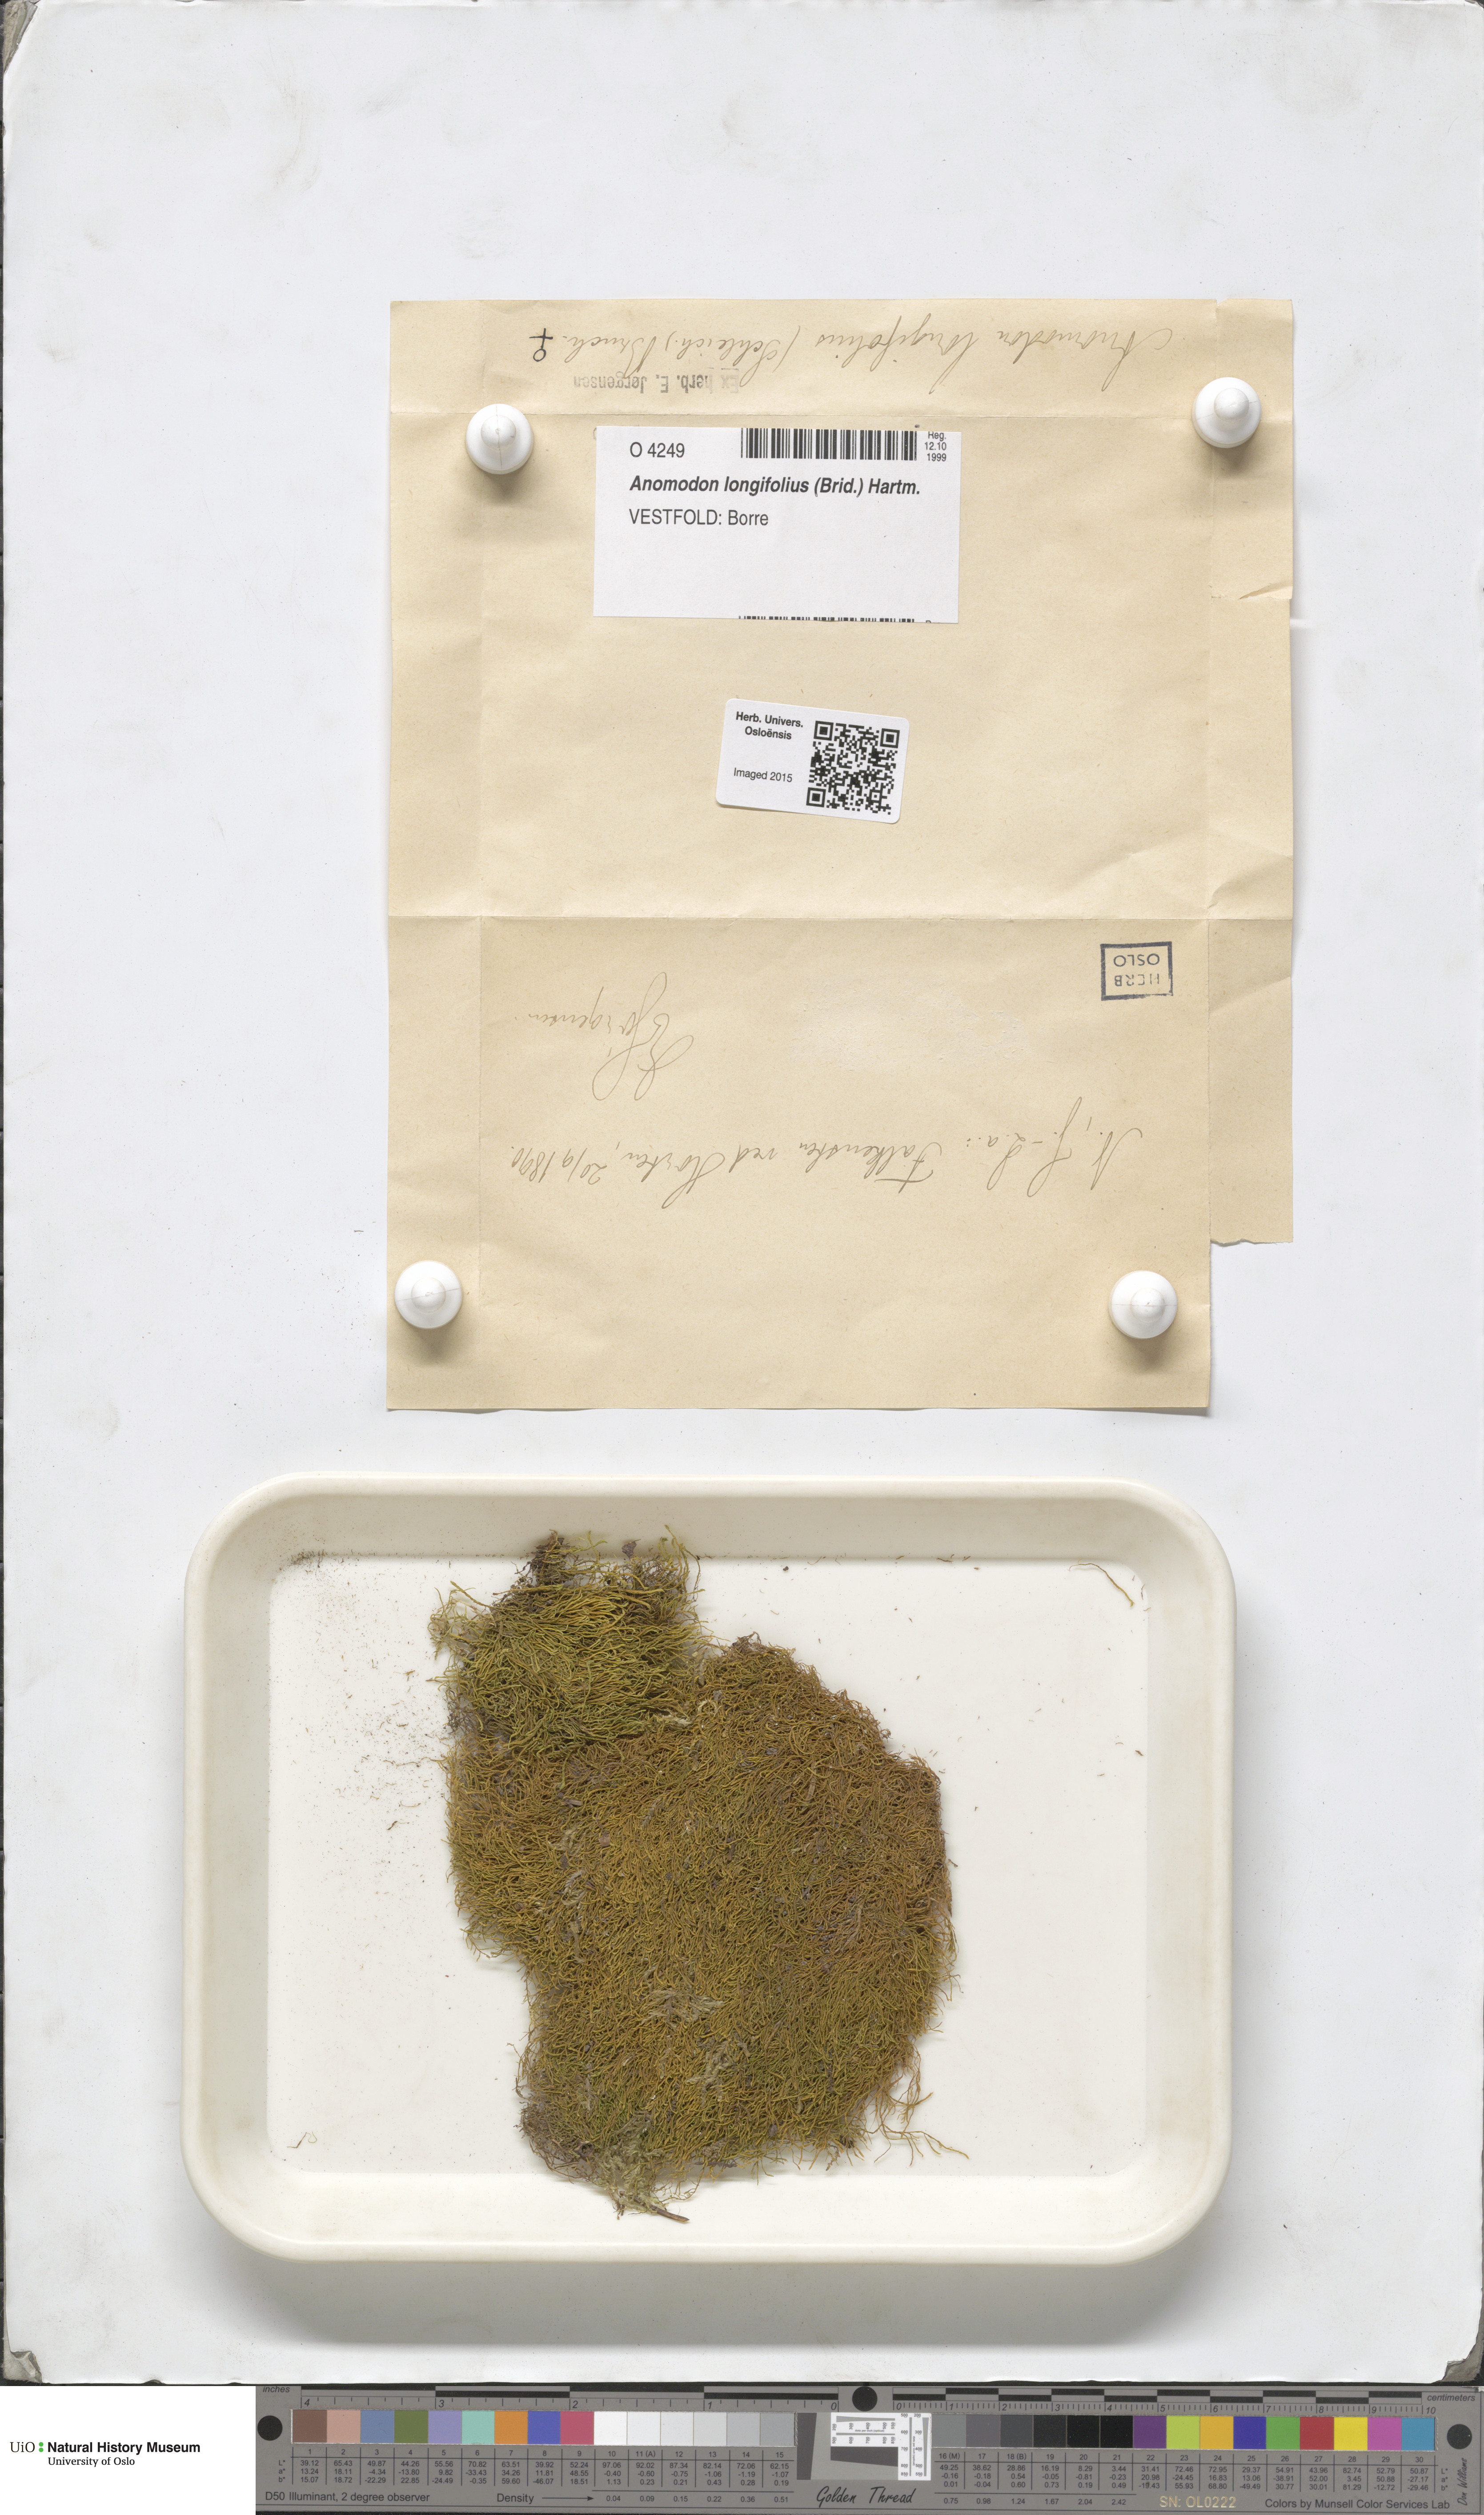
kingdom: Plantae
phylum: Bryophyta
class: Bryopsida
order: Hypnales
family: Anomodontaceae
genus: Anomodontella
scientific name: Anomodontella longifolia
